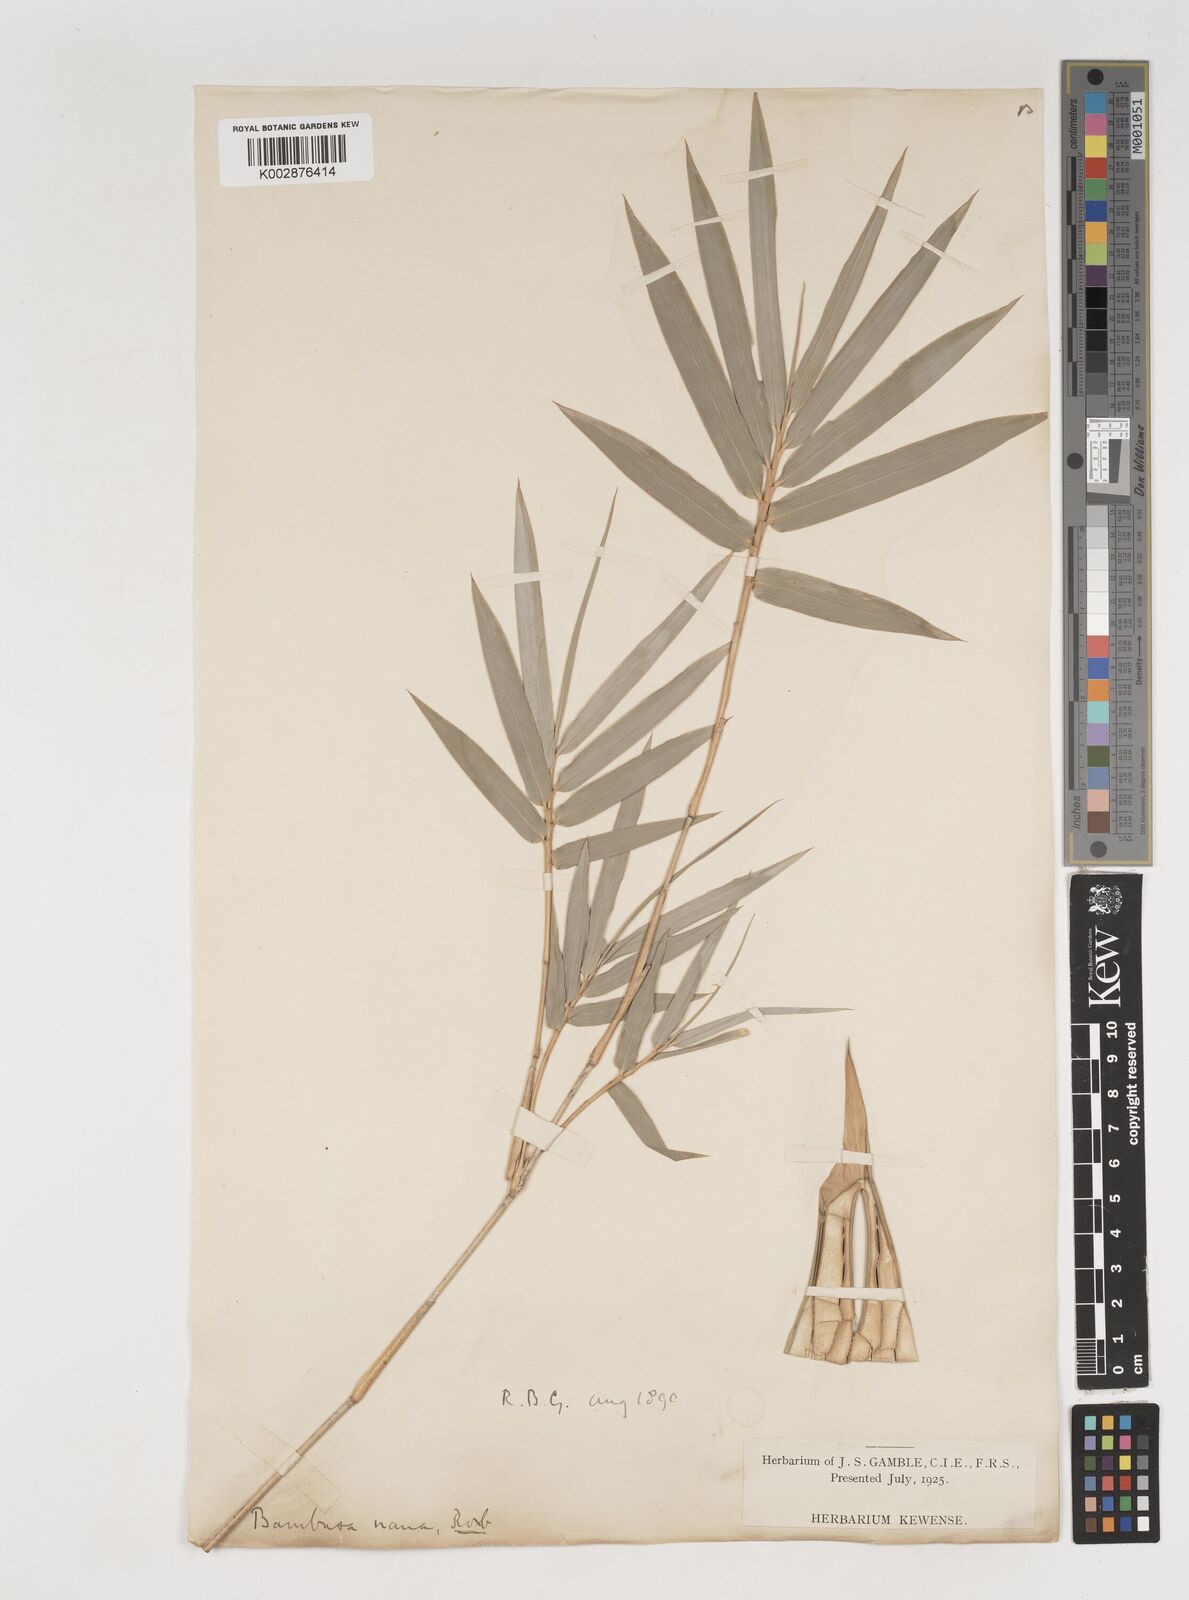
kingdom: Plantae
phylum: Tracheophyta
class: Liliopsida
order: Poales
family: Poaceae
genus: Bambusa
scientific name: Bambusa multiplex
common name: Hedge bamboo
